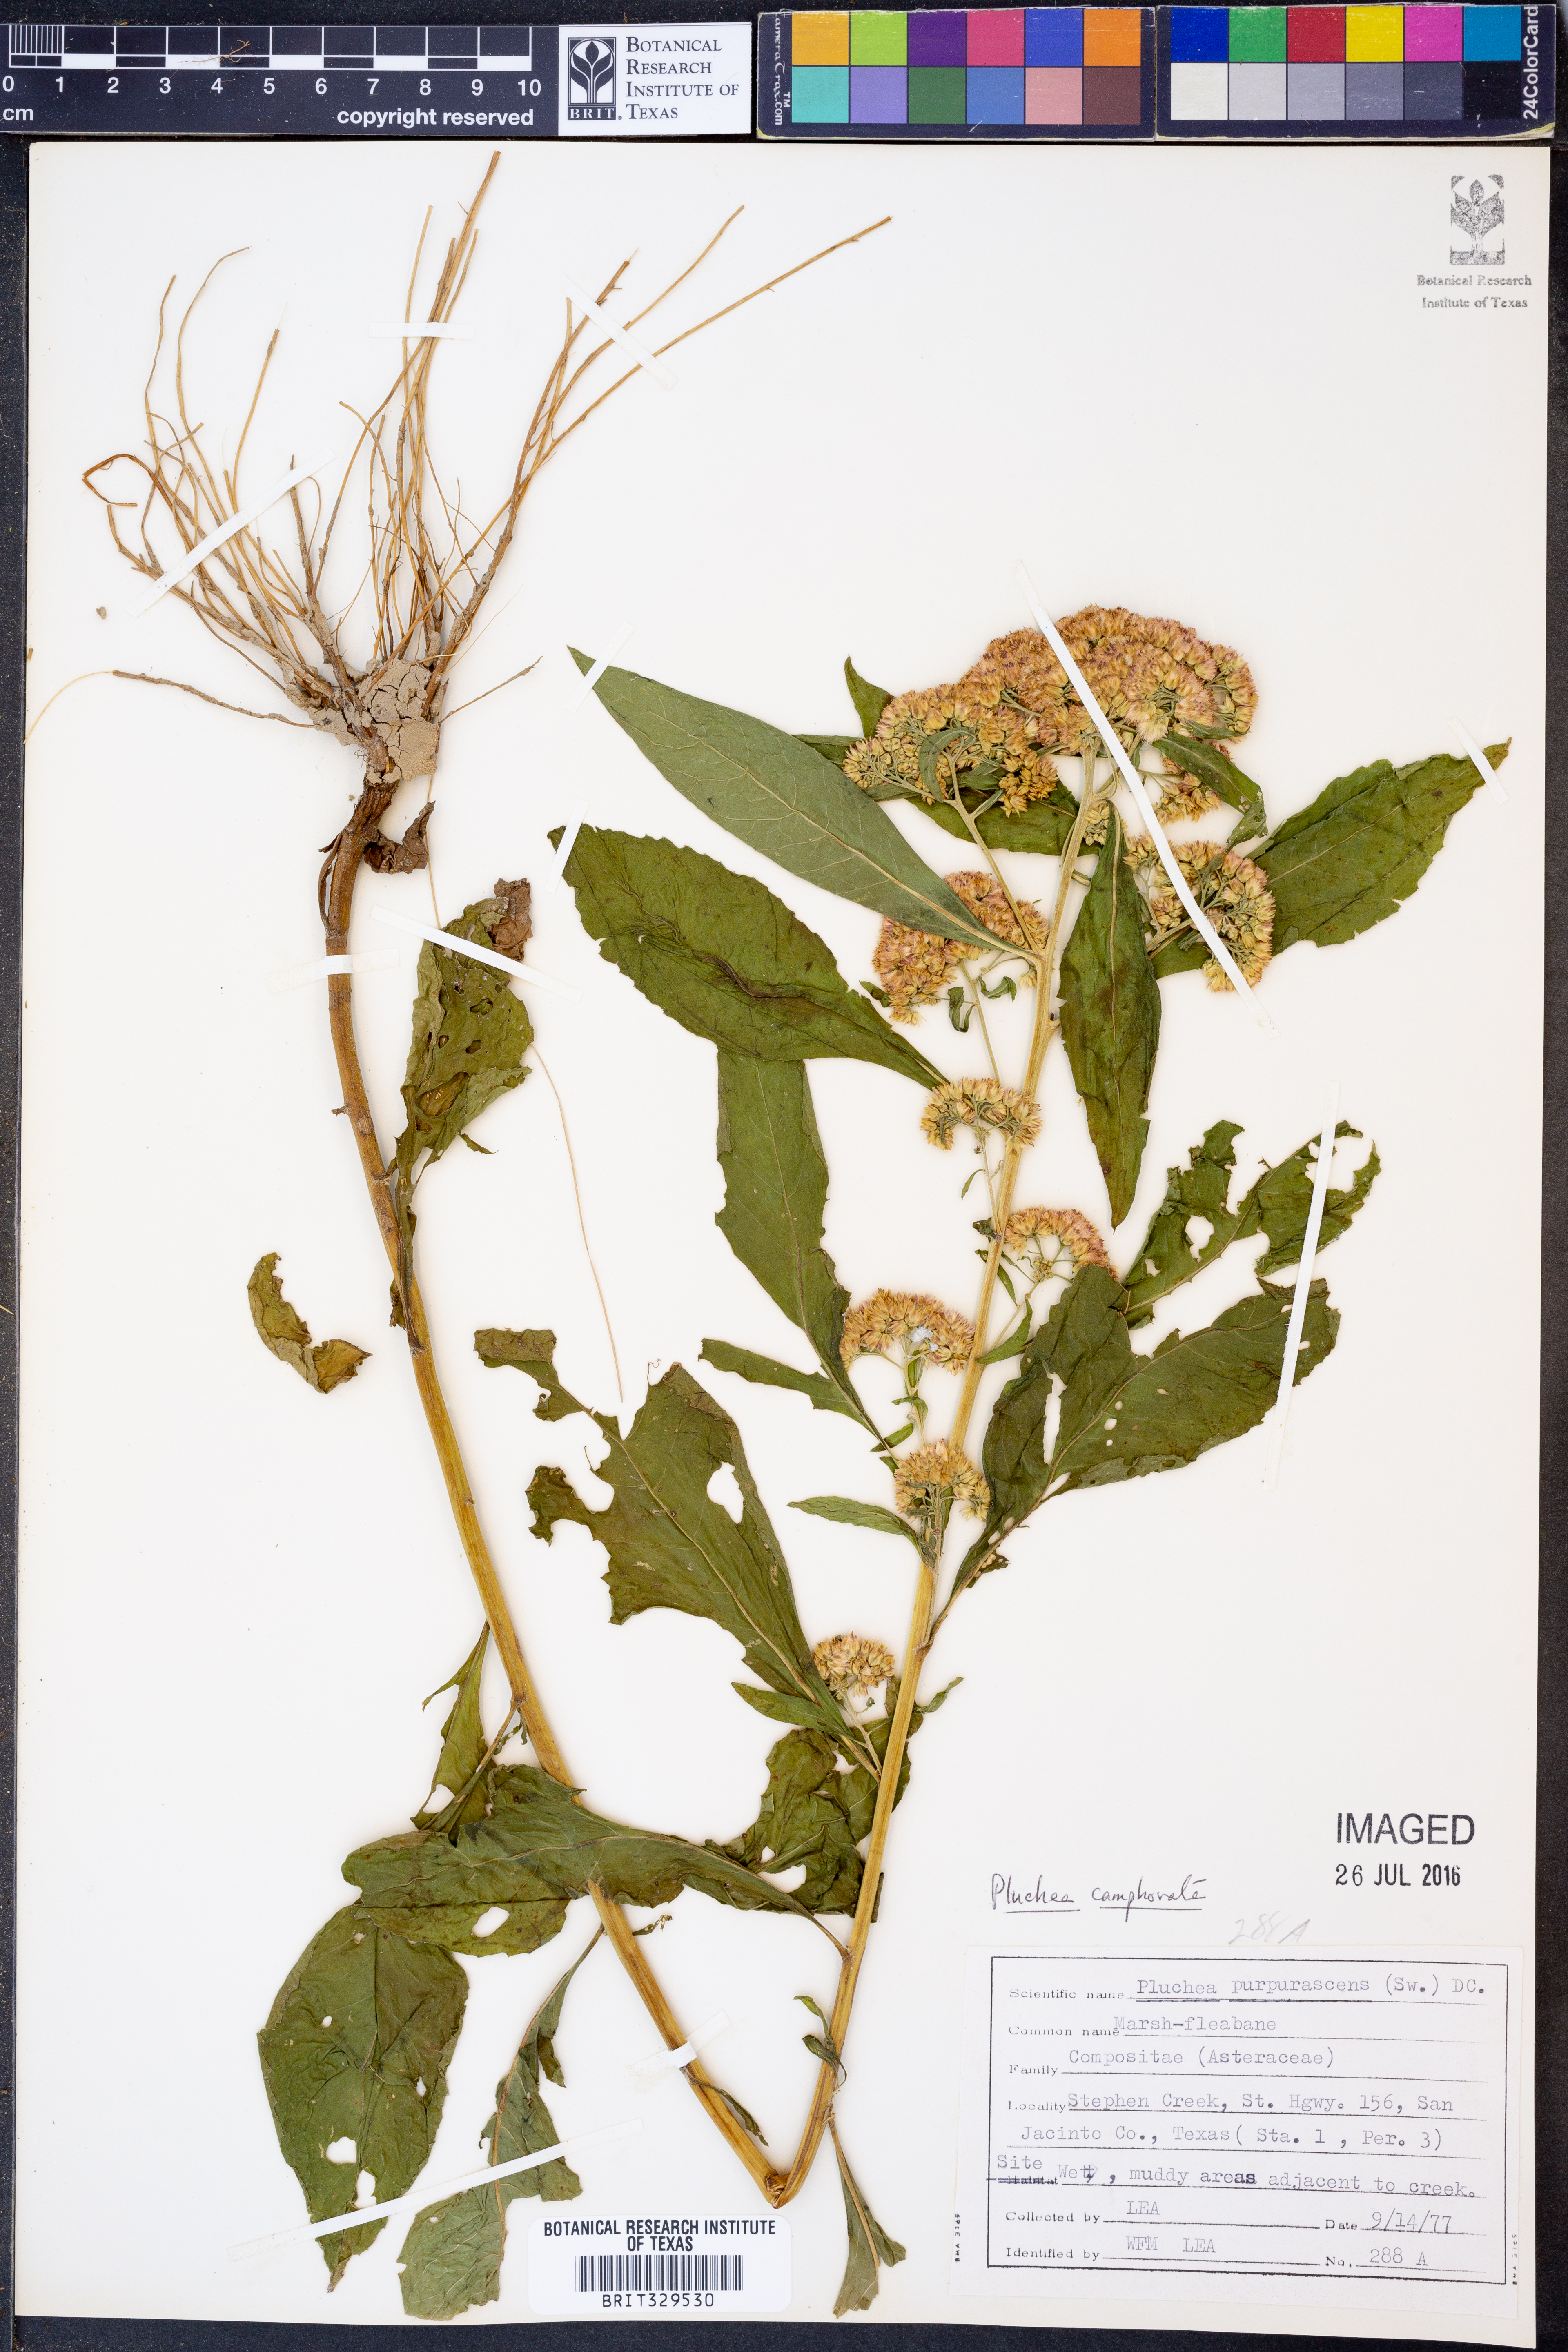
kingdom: Plantae
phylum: Tracheophyta
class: Magnoliopsida
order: Asterales
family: Asteraceae
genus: Pluchea
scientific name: Pluchea camphorata
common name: Camphor pluchea
